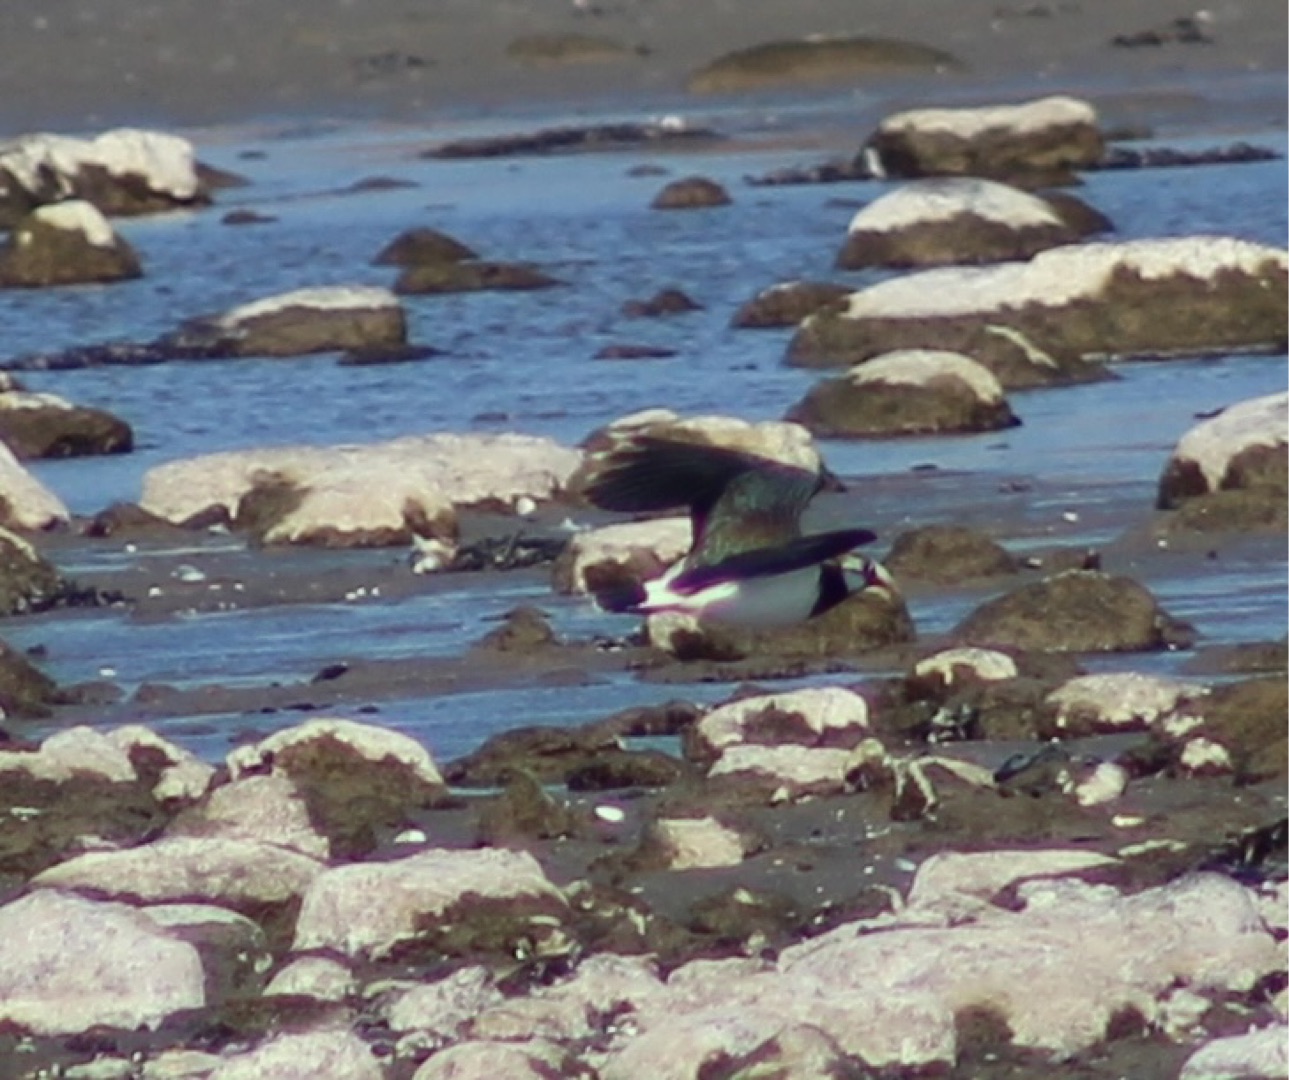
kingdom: Animalia
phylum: Chordata
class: Aves
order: Charadriiformes
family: Charadriidae
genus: Vanellus
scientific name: Vanellus vanellus
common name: Vibe
